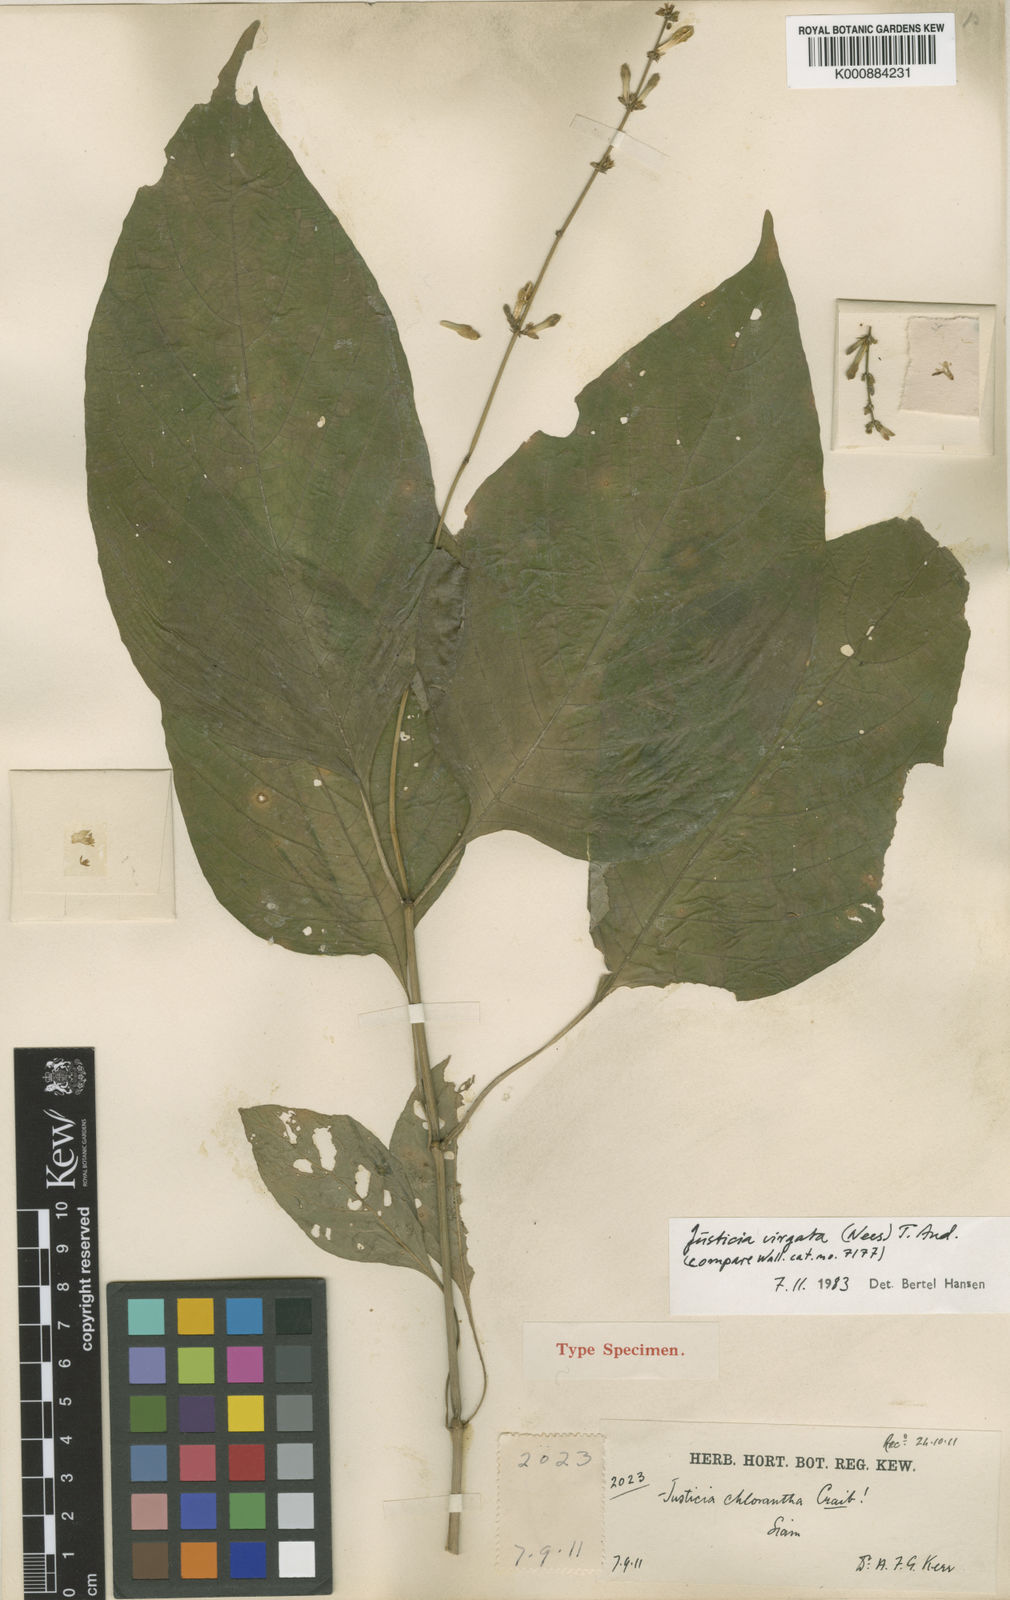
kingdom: Plantae
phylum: Tracheophyta
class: Magnoliopsida
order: Lamiales
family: Acanthaceae
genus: Justicia
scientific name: Justicia virgata
